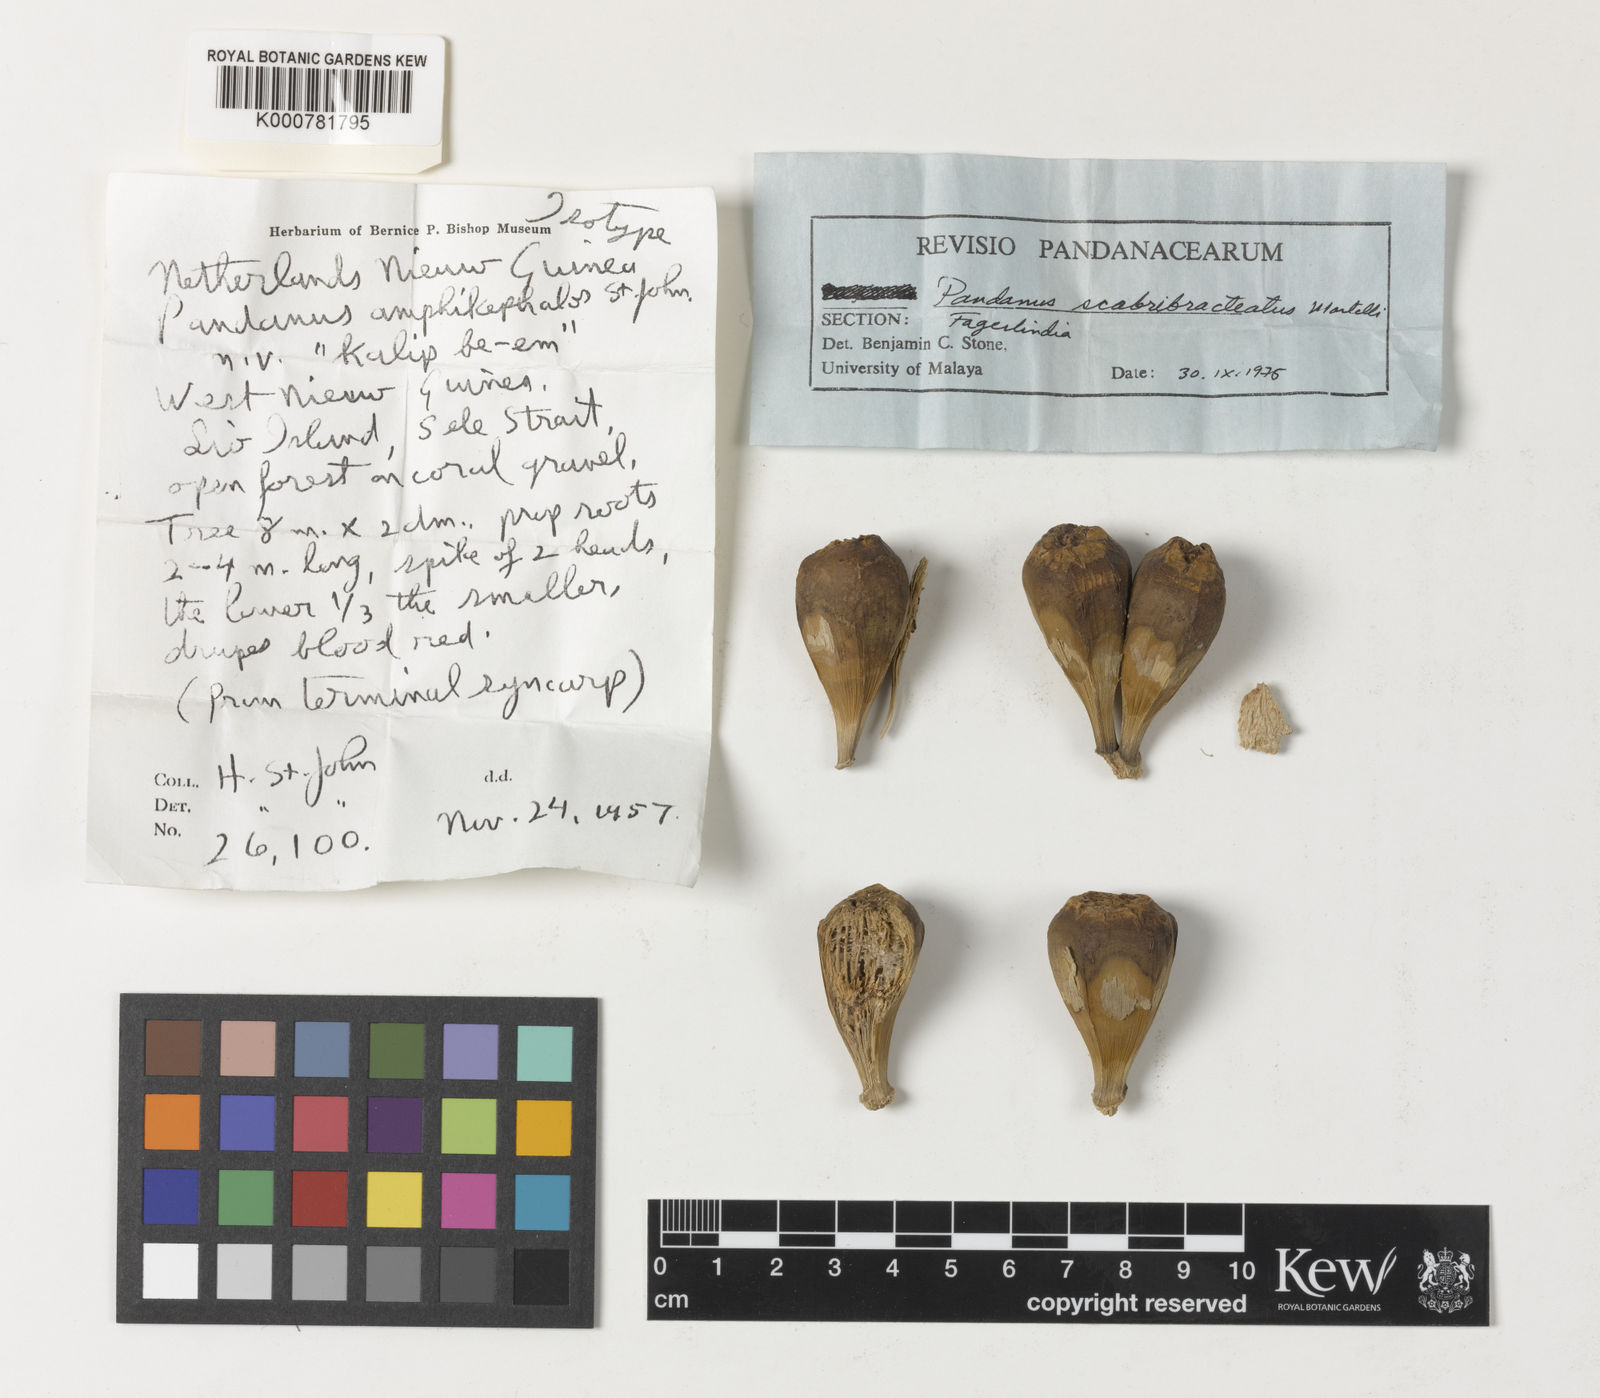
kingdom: Plantae
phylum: Tracheophyta
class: Liliopsida
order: Pandanales
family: Pandanaceae
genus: Pandanus
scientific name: Pandanus kaernbachii
